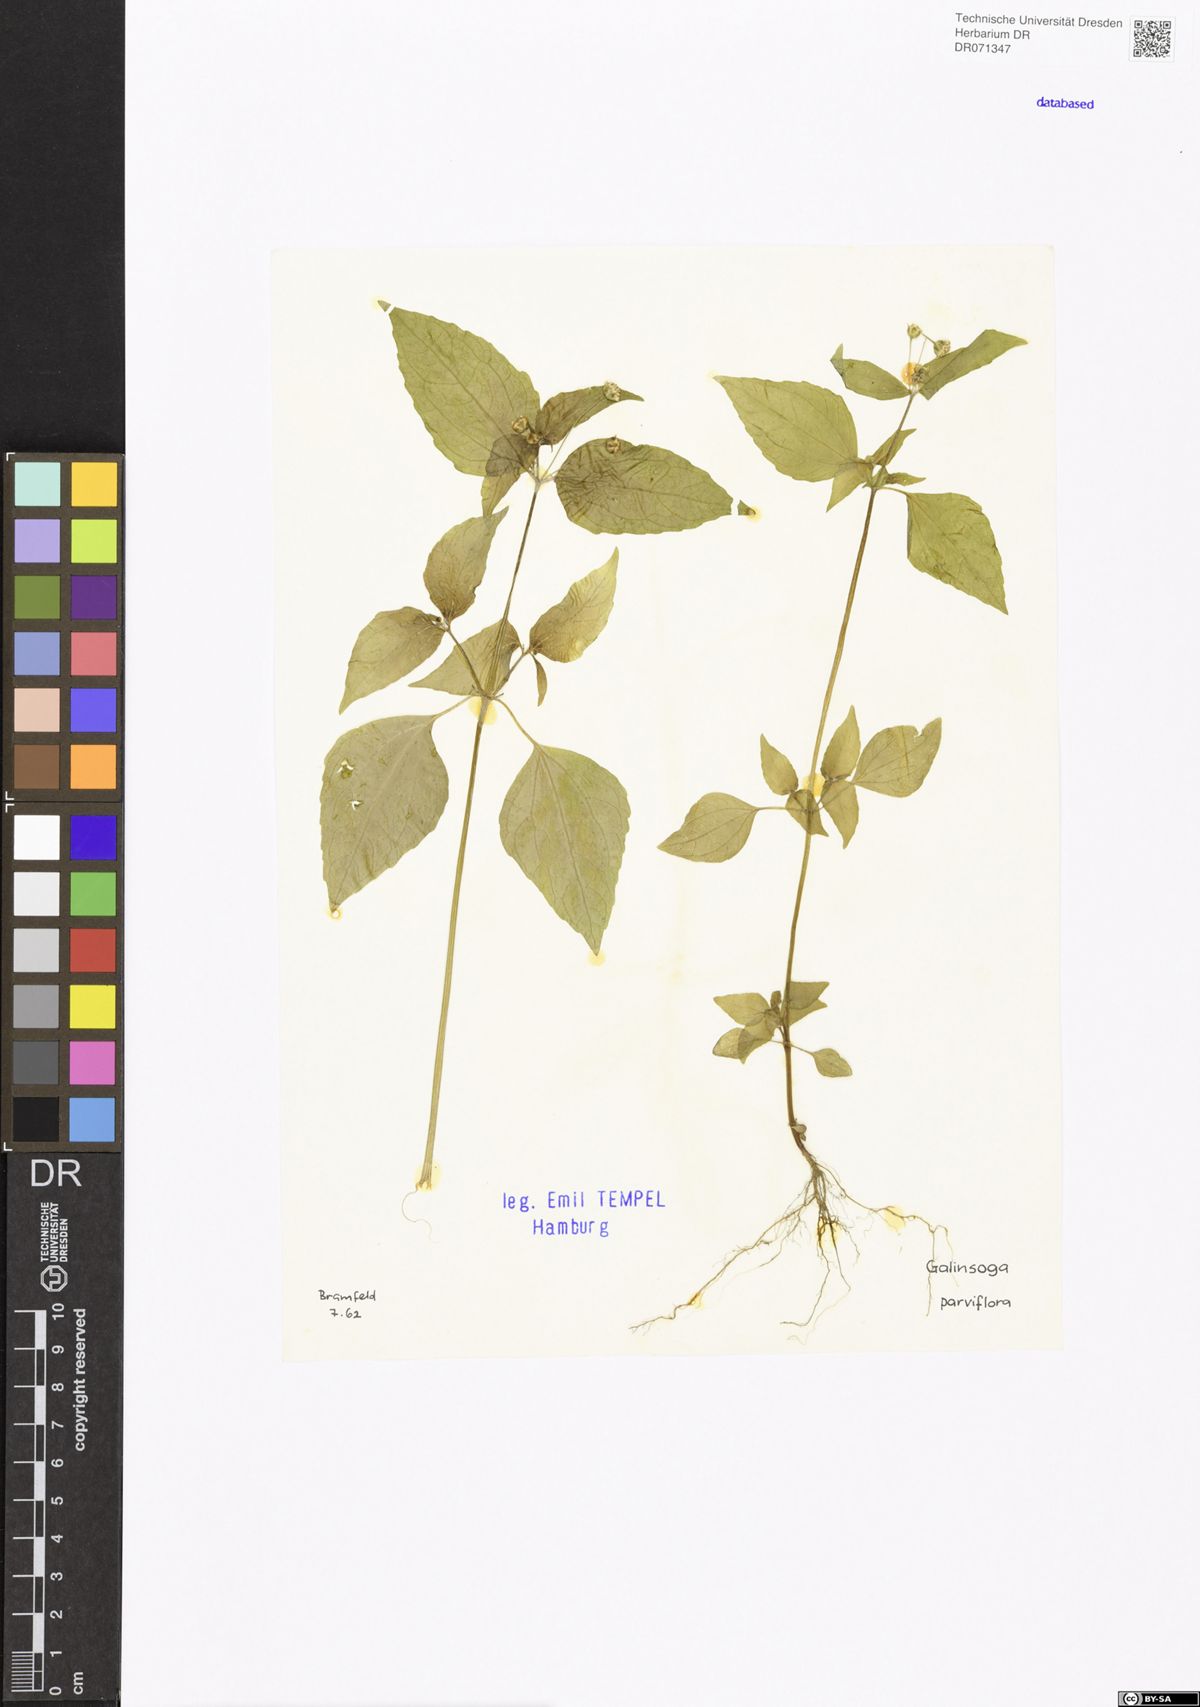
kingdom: Plantae
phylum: Tracheophyta
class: Magnoliopsida
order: Asterales
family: Asteraceae
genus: Galinsoga
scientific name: Galinsoga parviflora
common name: Gallant soldier
